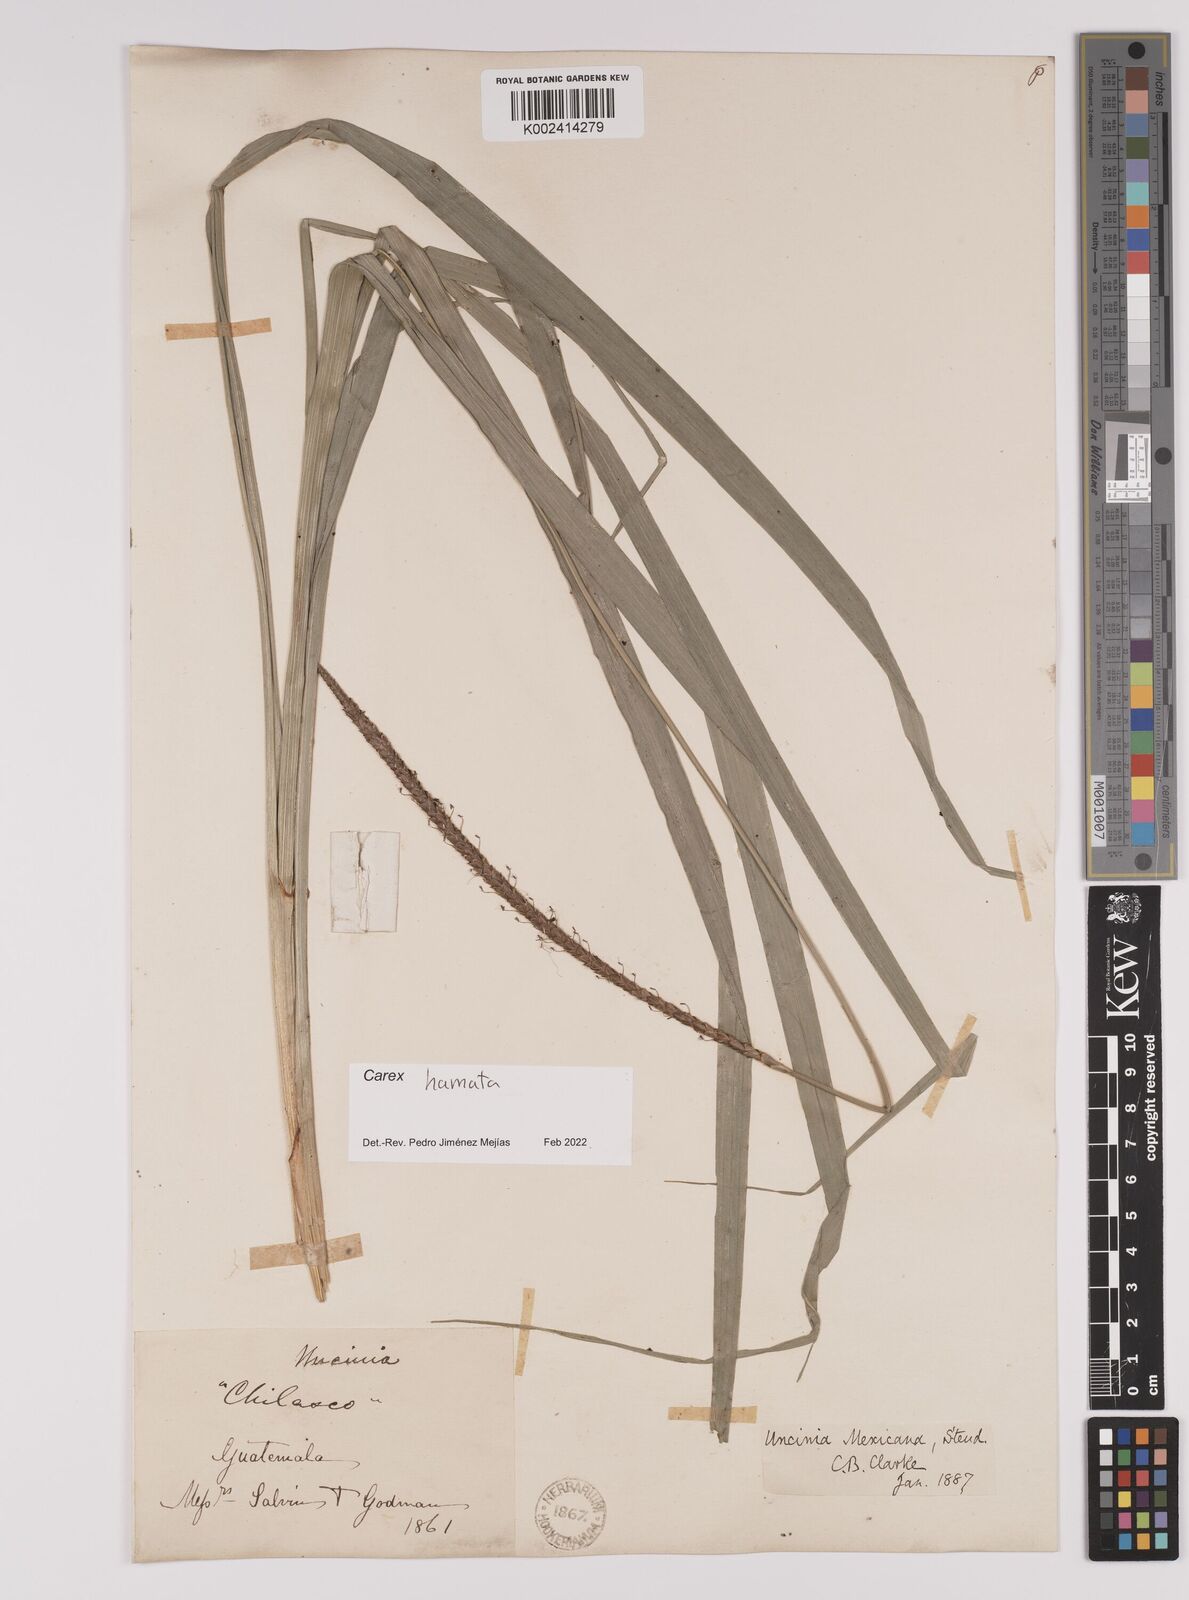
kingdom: Plantae
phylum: Tracheophyta
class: Liliopsida
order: Poales
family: Cyperaceae
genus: Carex
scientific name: Carex hamata
